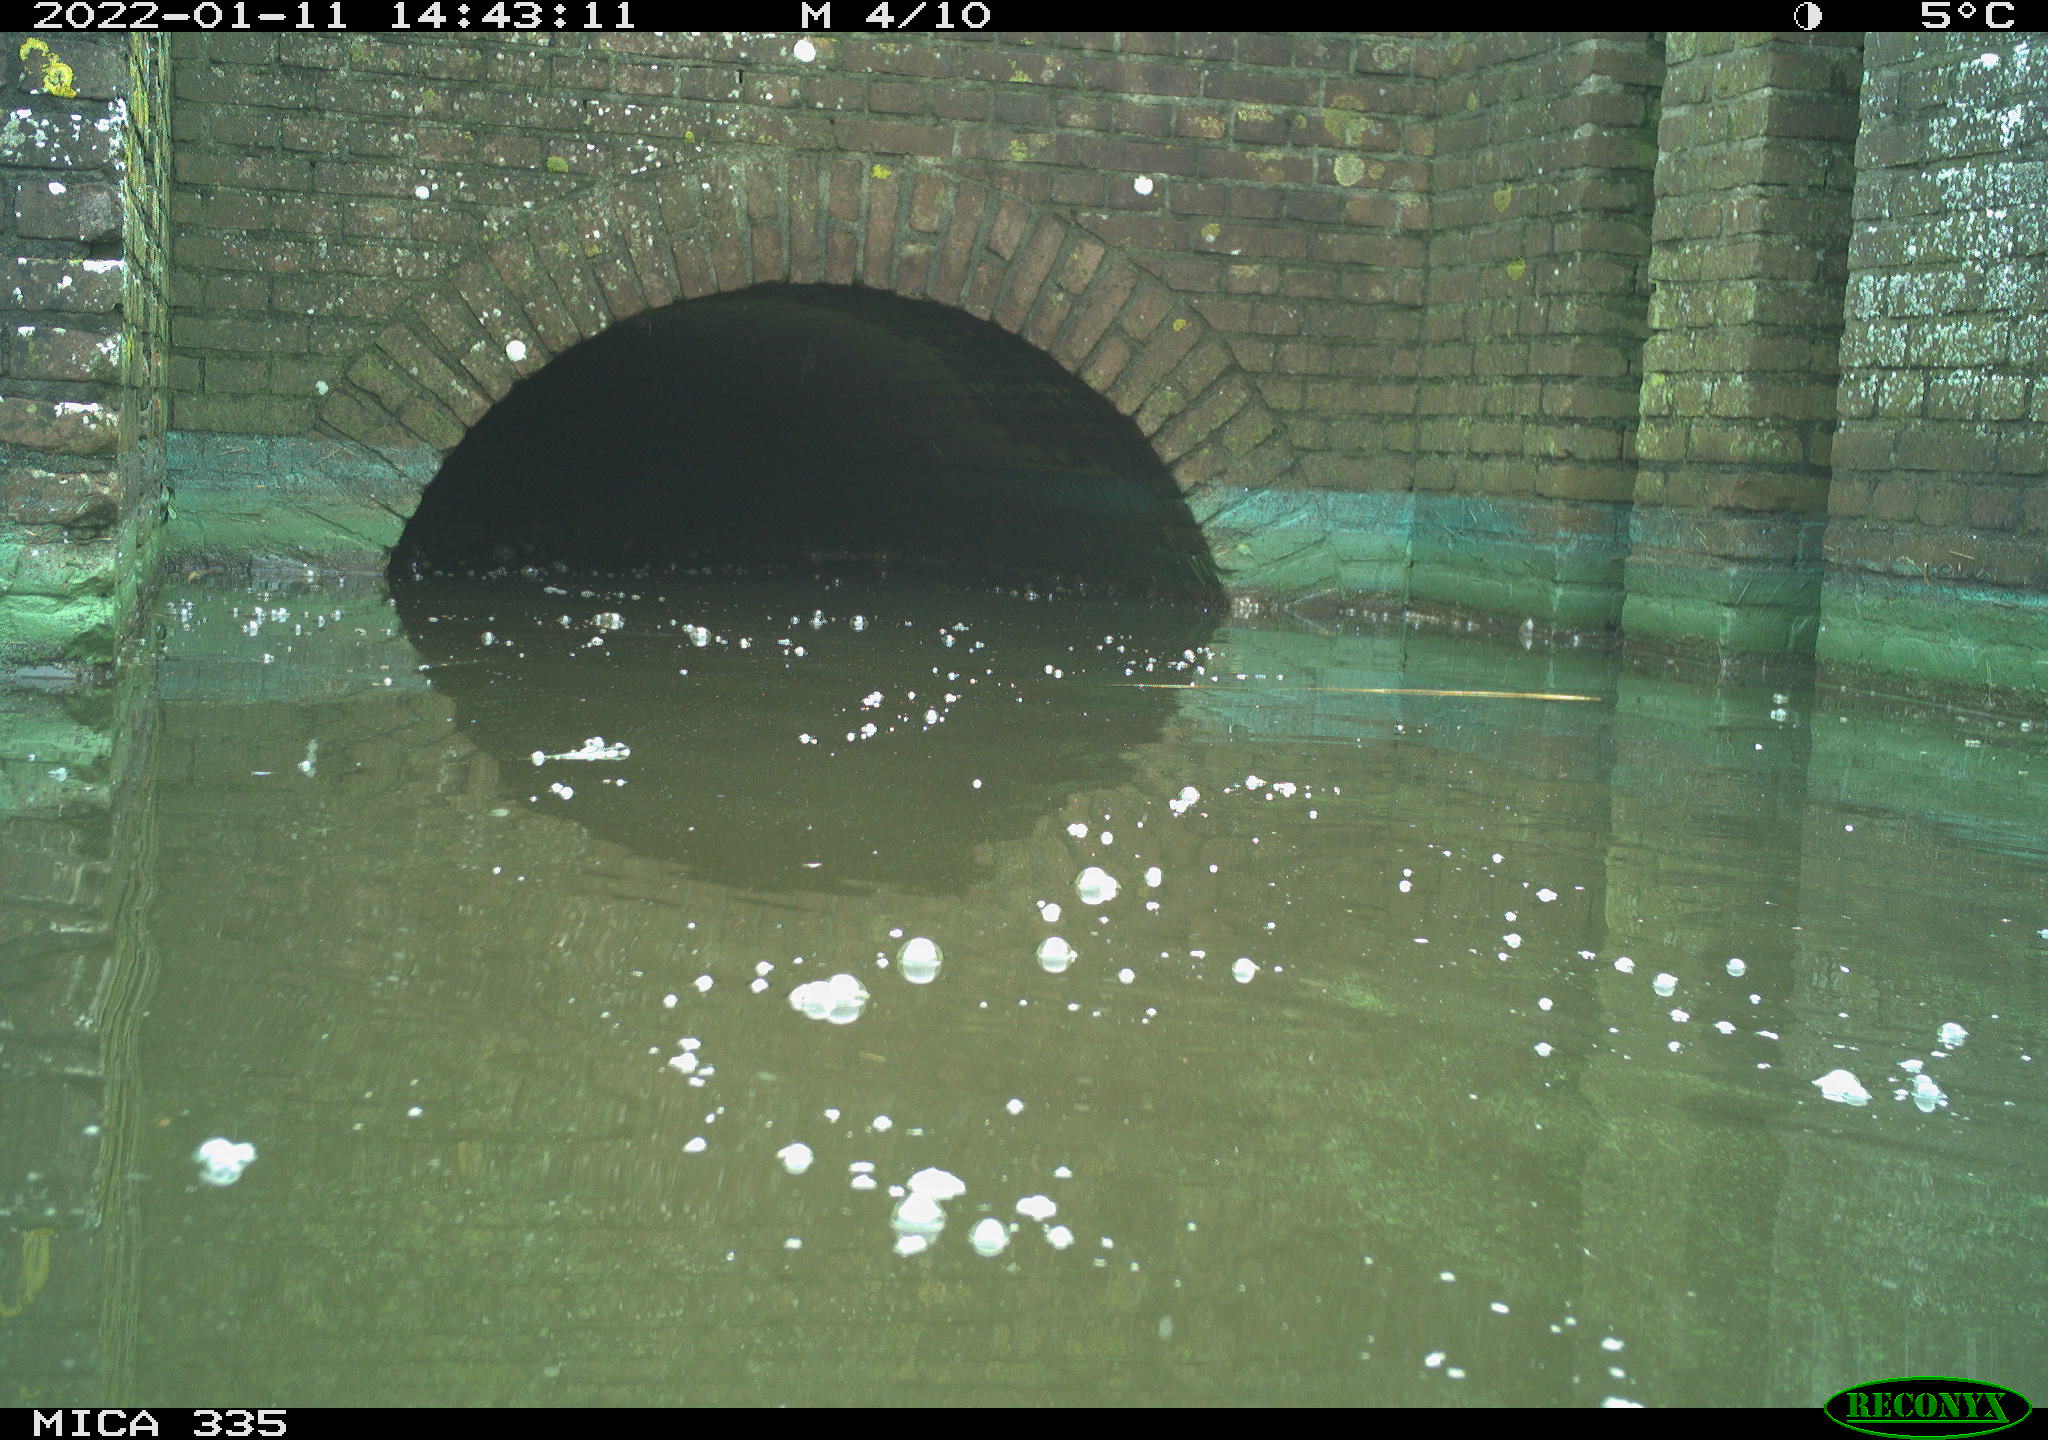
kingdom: Animalia
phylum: Chordata
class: Aves
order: Gruiformes
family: Rallidae
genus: Fulica
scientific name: Fulica atra
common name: Eurasian coot
